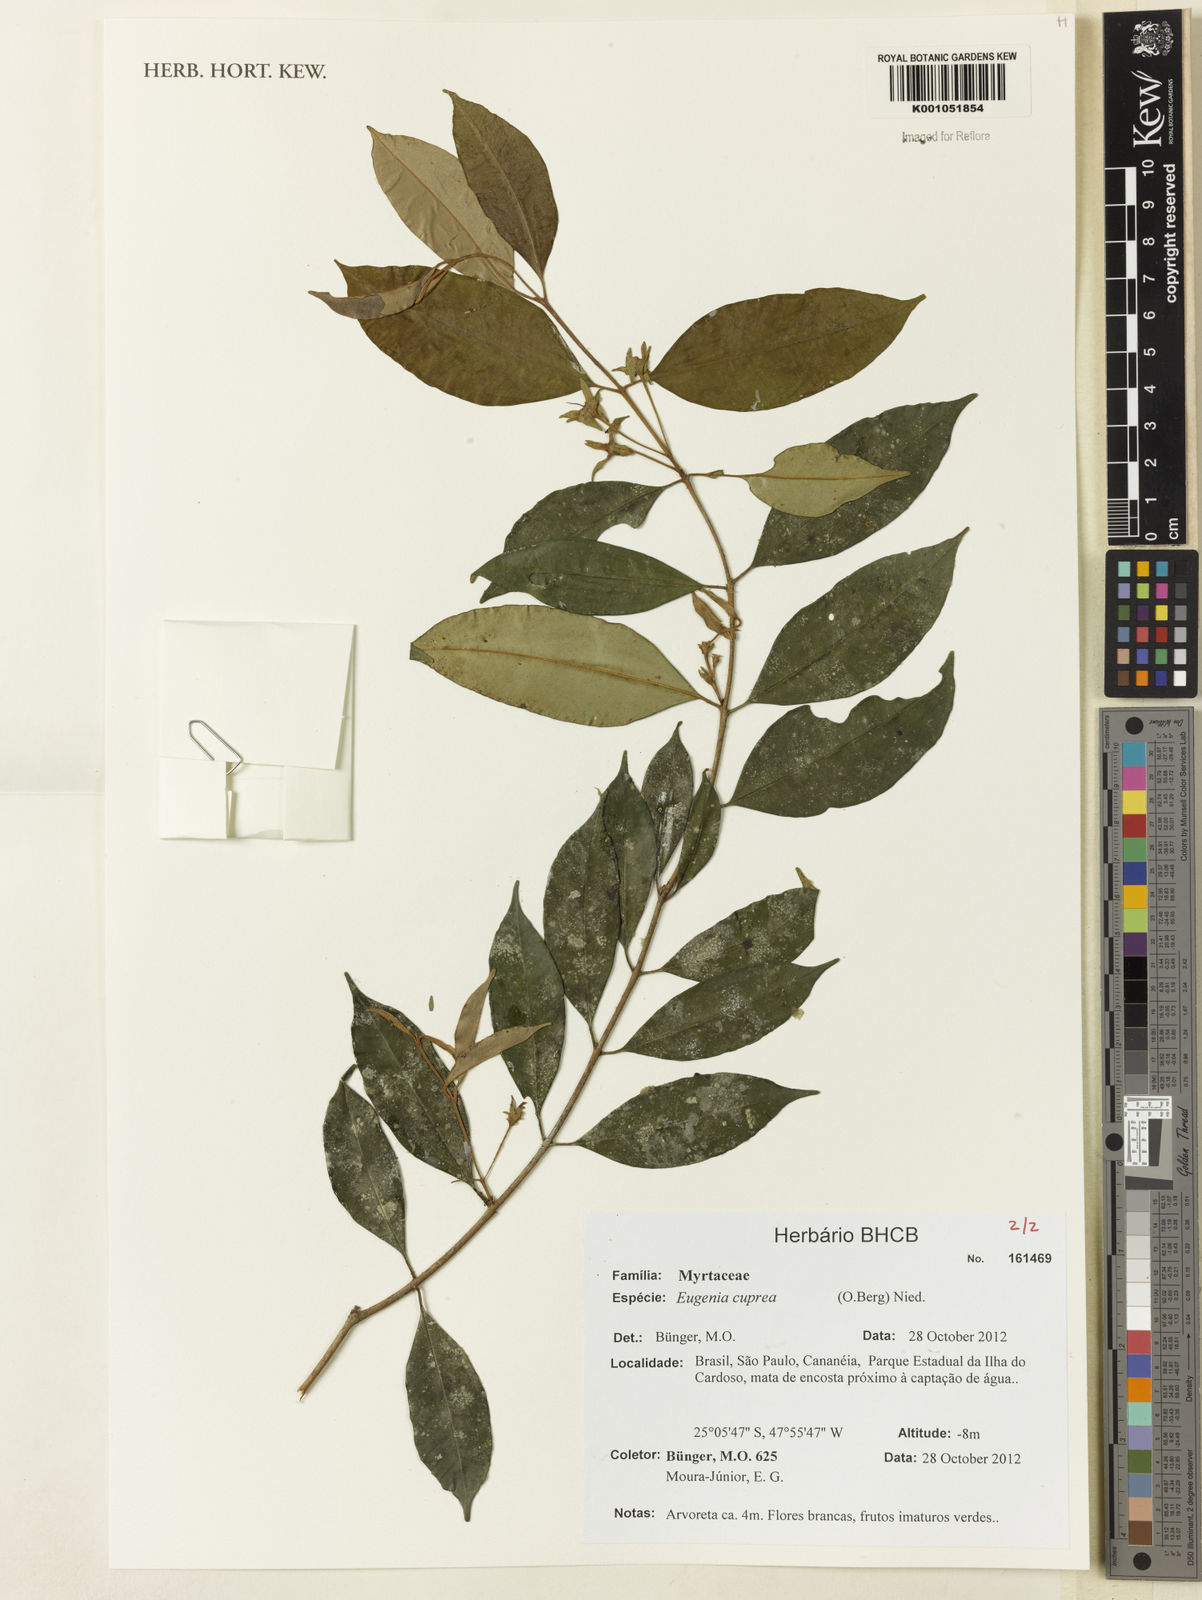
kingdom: Plantae
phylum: Tracheophyta
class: Magnoliopsida
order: Myrtales
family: Myrtaceae
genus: Eugenia
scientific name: Eugenia cuprea
